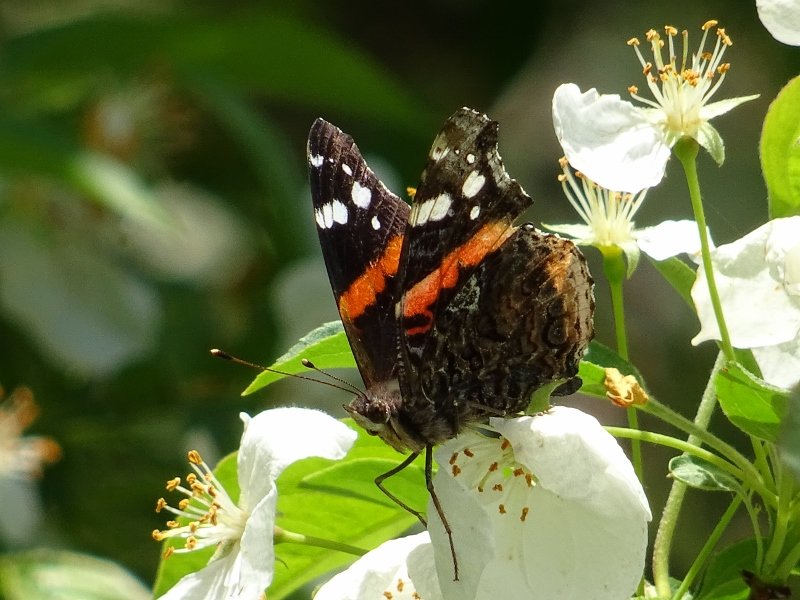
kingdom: Animalia
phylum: Arthropoda
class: Insecta
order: Lepidoptera
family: Nymphalidae
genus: Vanessa
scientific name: Vanessa atalanta
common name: Red Admiral
